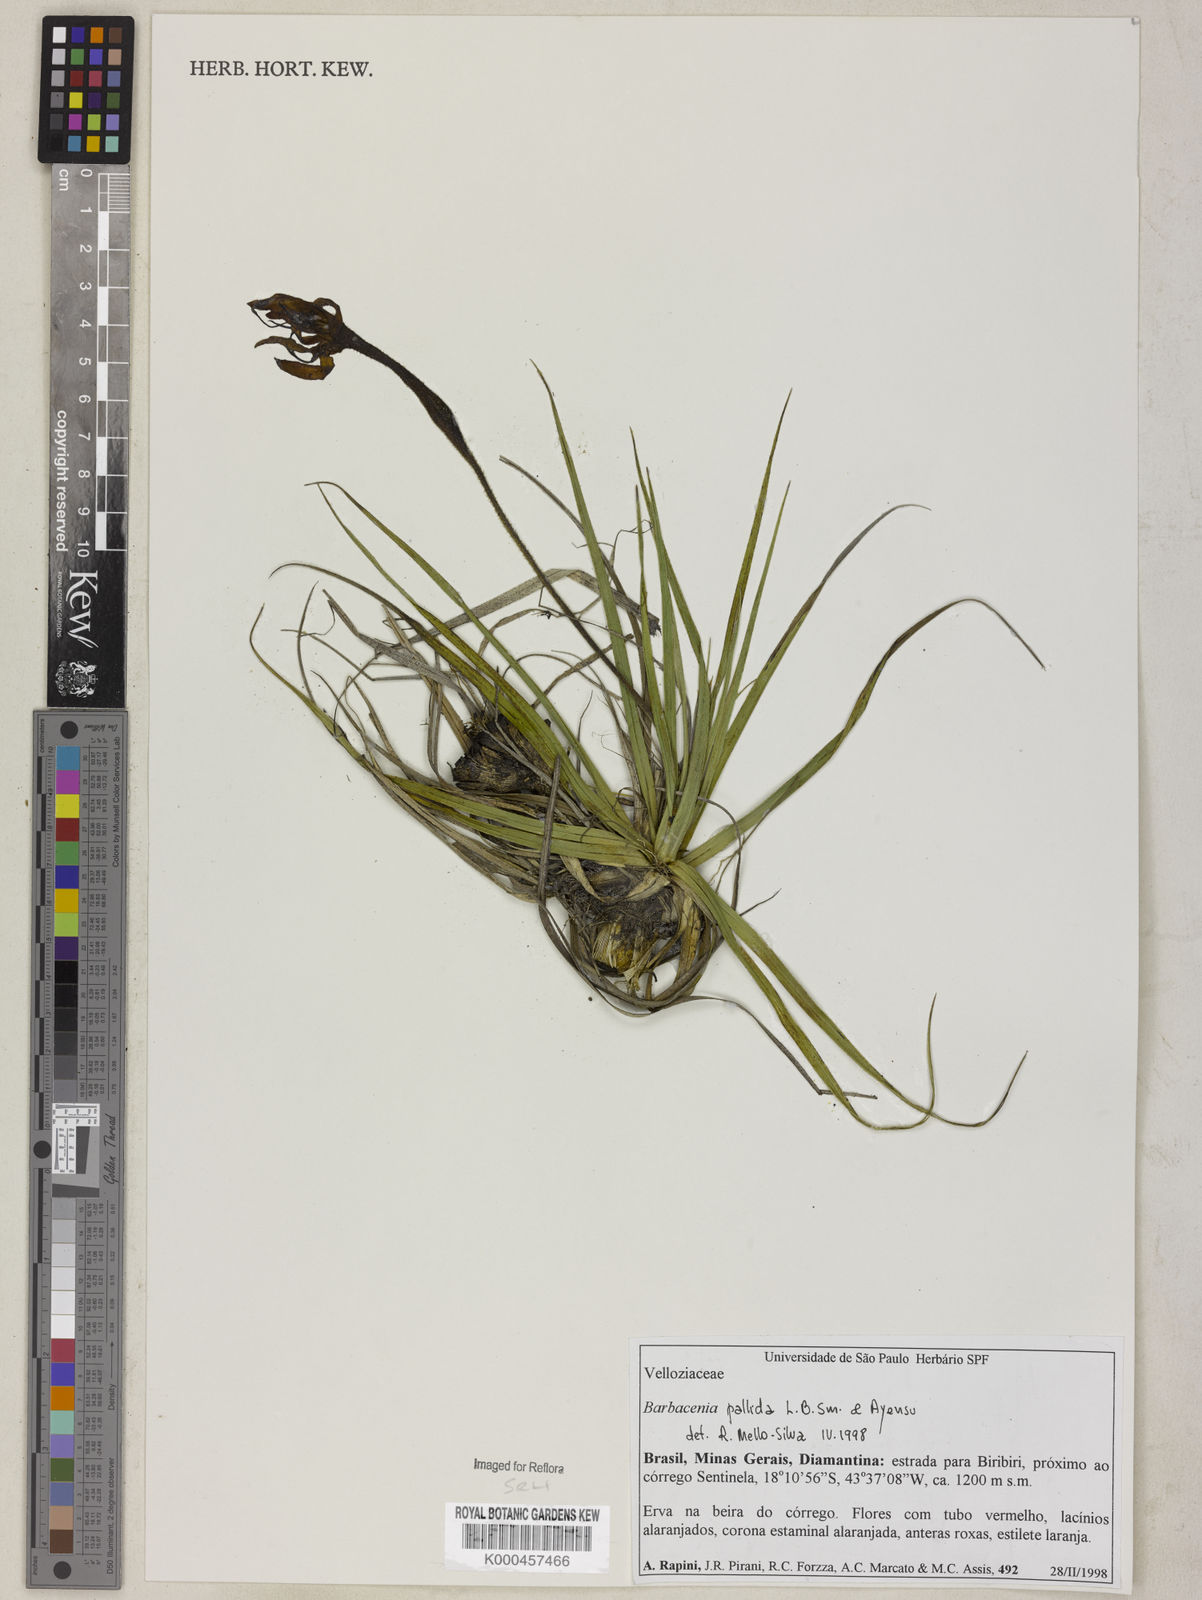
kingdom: Plantae
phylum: Tracheophyta
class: Liliopsida
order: Pandanales
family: Velloziaceae
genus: Barbacenia
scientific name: Barbacenia pallida
